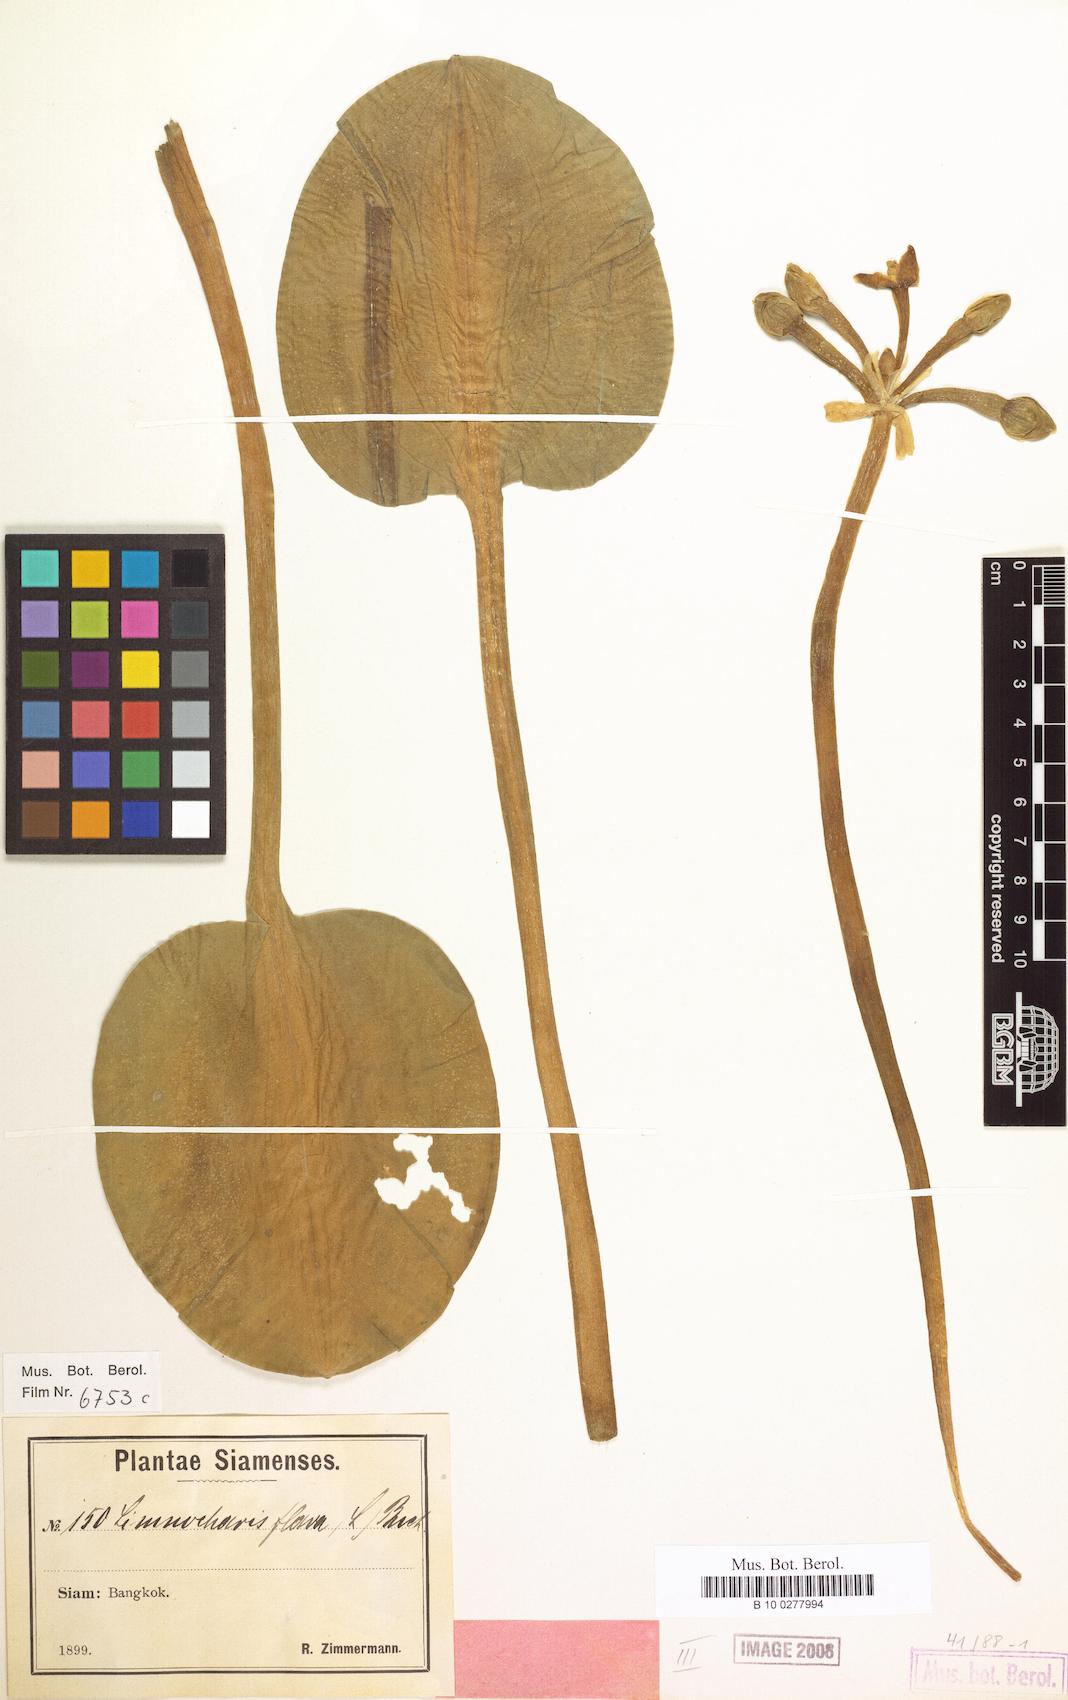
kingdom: Plantae
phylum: Tracheophyta
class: Liliopsida
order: Alismatales
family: Alismataceae
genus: Limnocharis
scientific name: Limnocharis flava
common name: Sawah-flower-rush
